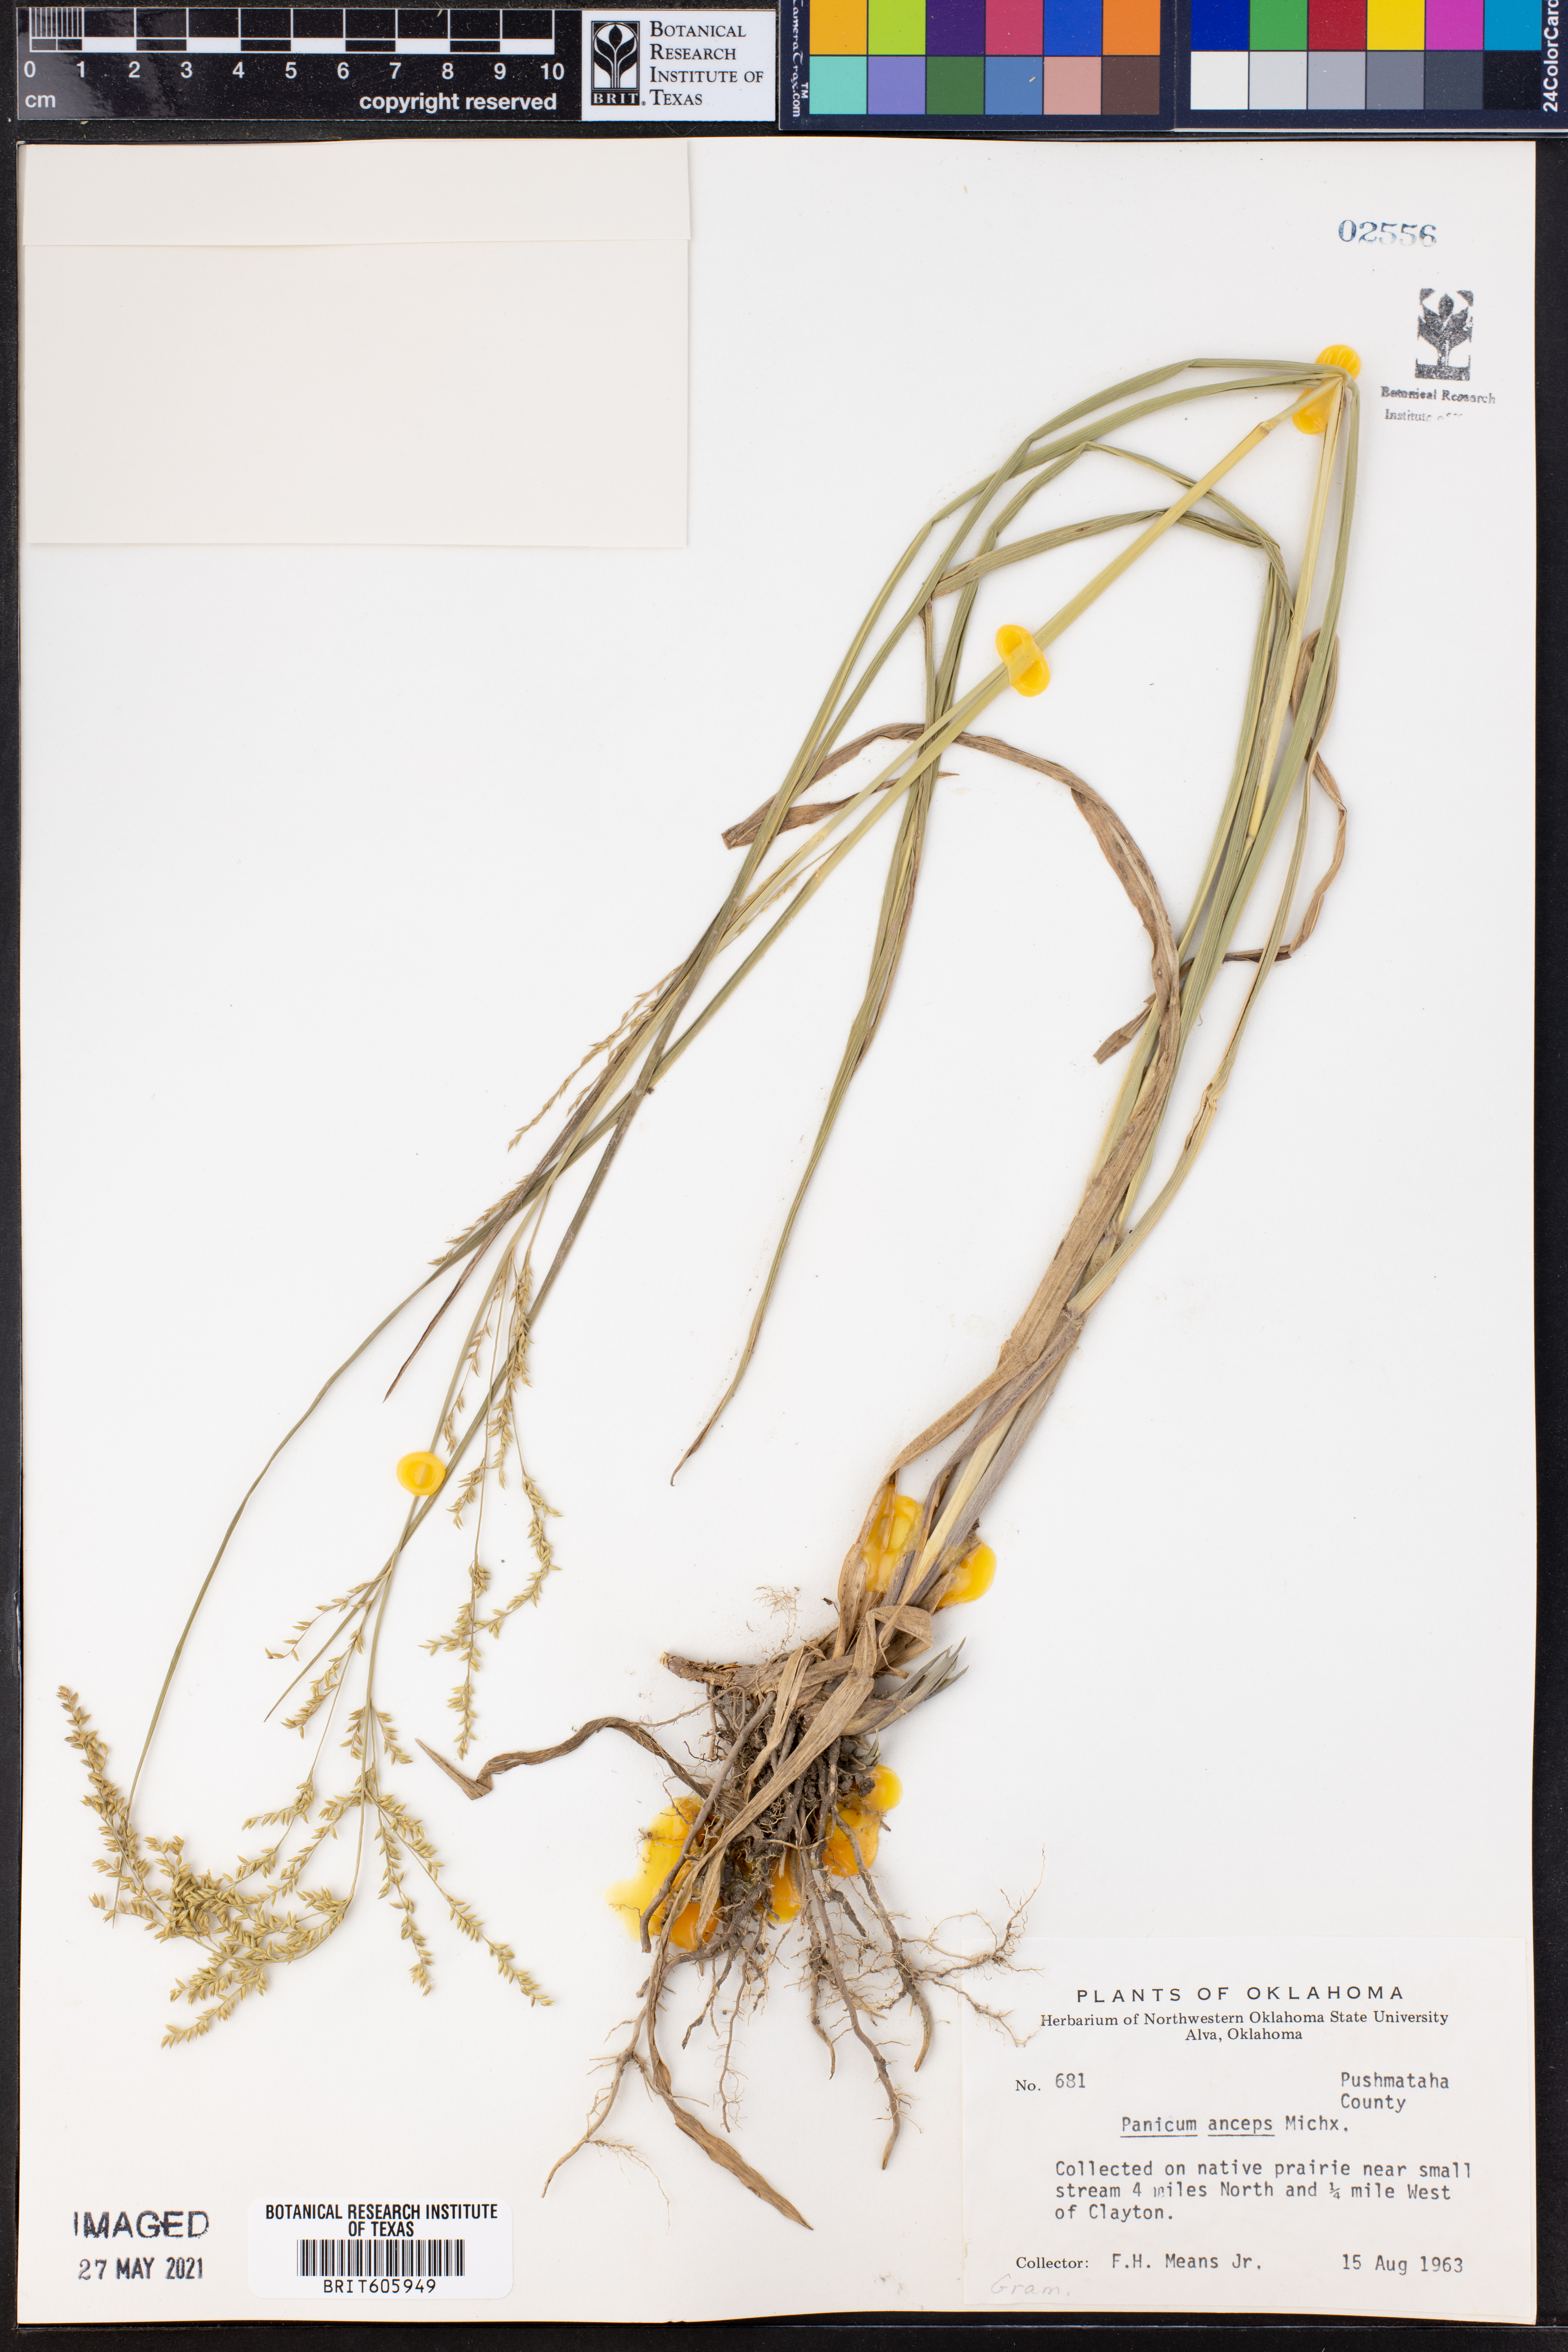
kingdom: Plantae
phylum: Tracheophyta
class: Liliopsida
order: Poales
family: Poaceae
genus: Coleataenia
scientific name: Coleataenia anceps
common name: Beaked panic grass
